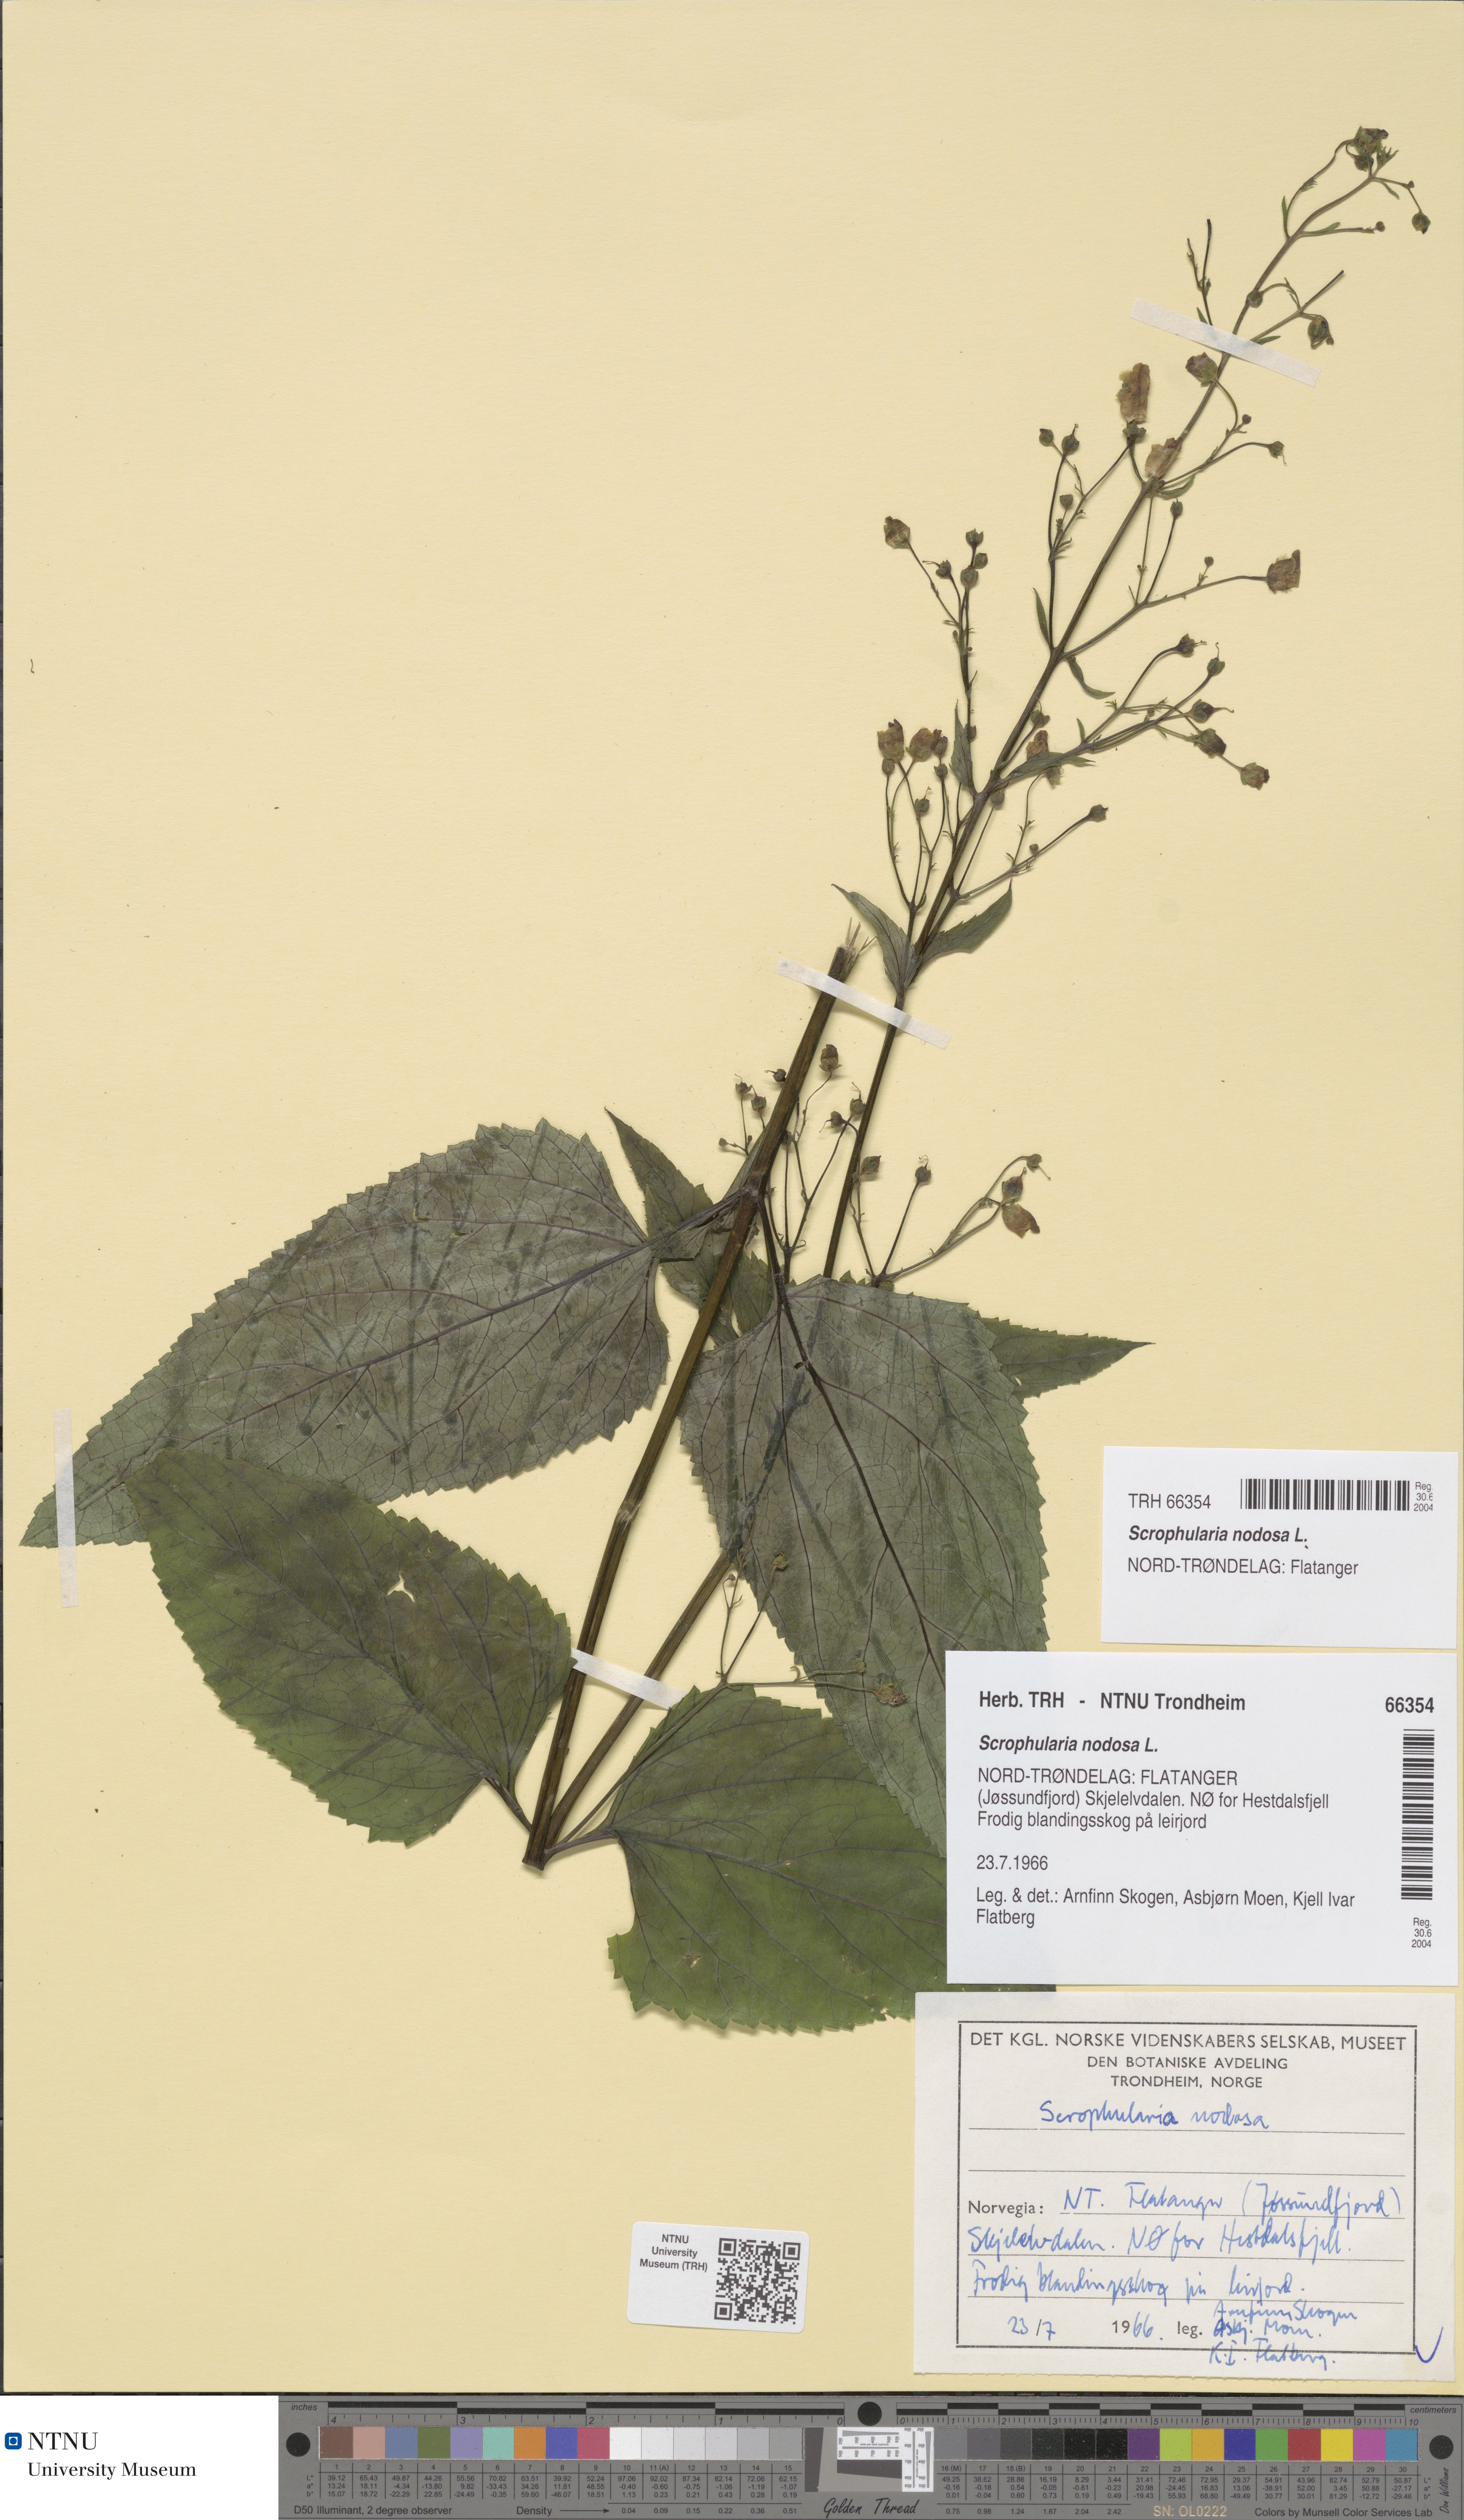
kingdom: Plantae
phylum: Tracheophyta
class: Magnoliopsida
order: Lamiales
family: Scrophulariaceae
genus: Scrophularia
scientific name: Scrophularia nodosa
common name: Common figwort
